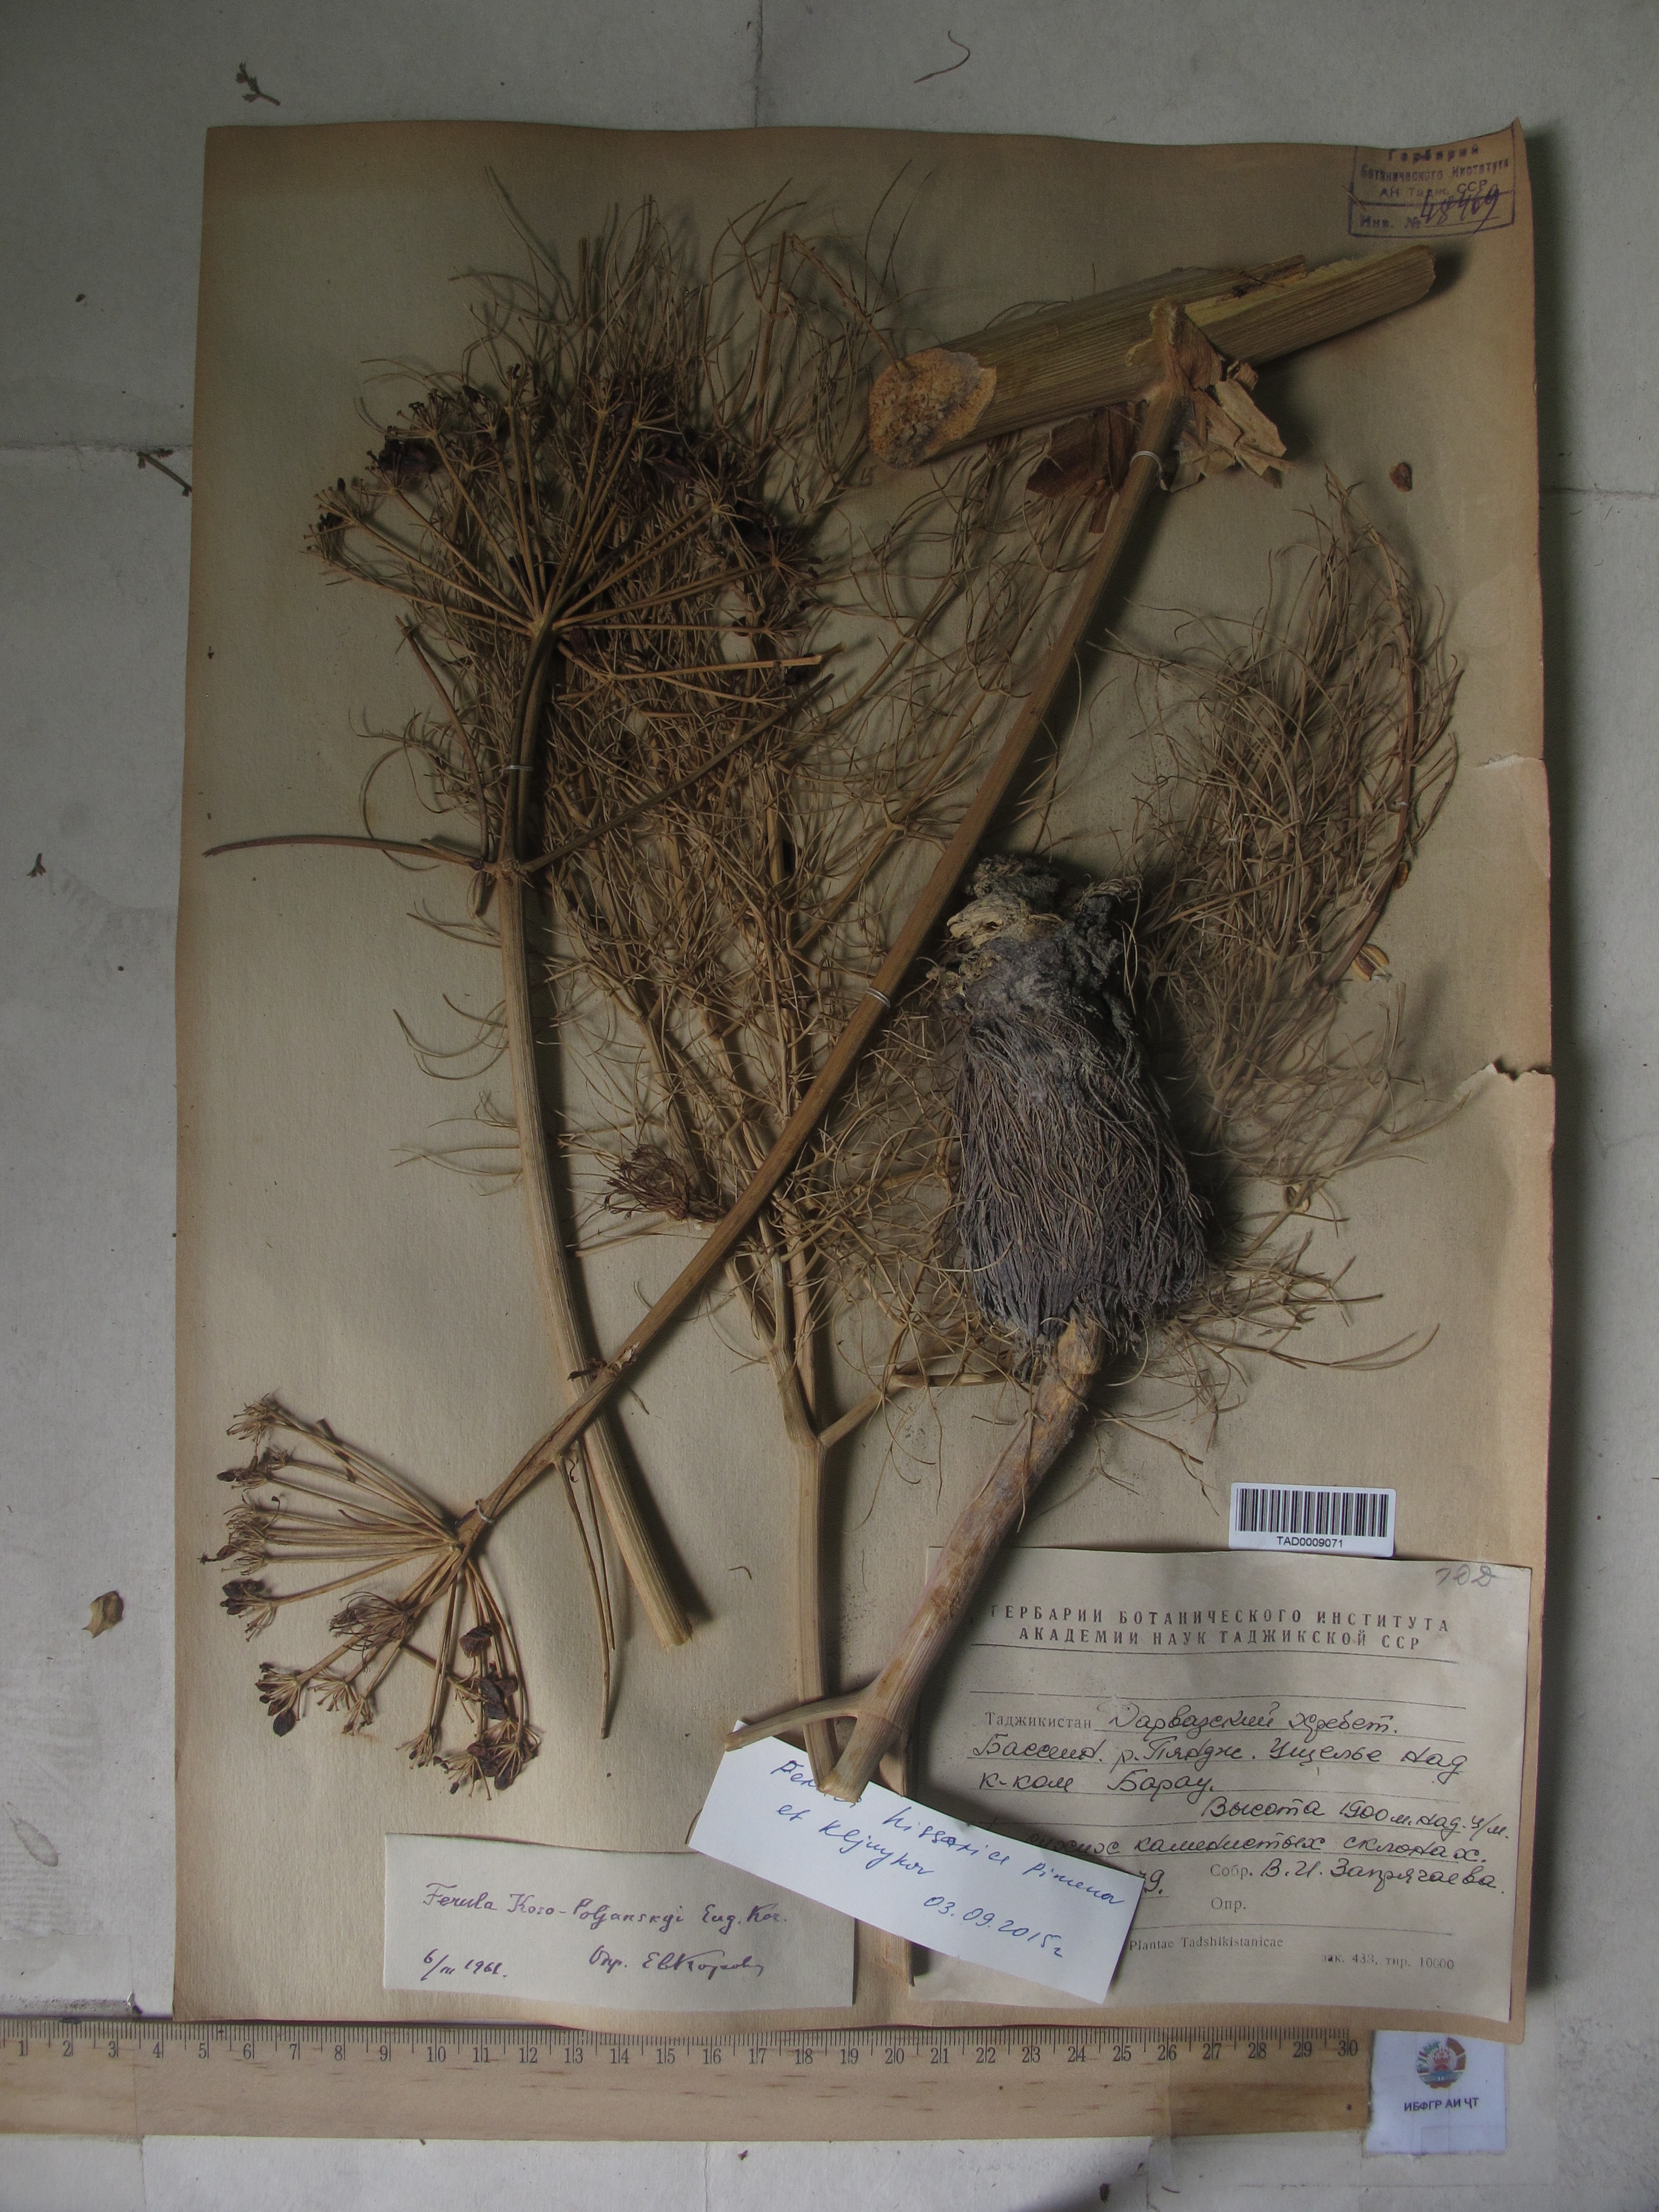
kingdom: Plantae
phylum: Tracheophyta
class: Magnoliopsida
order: Apiales
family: Apiaceae
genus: Ferula
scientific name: Ferula hissarica
